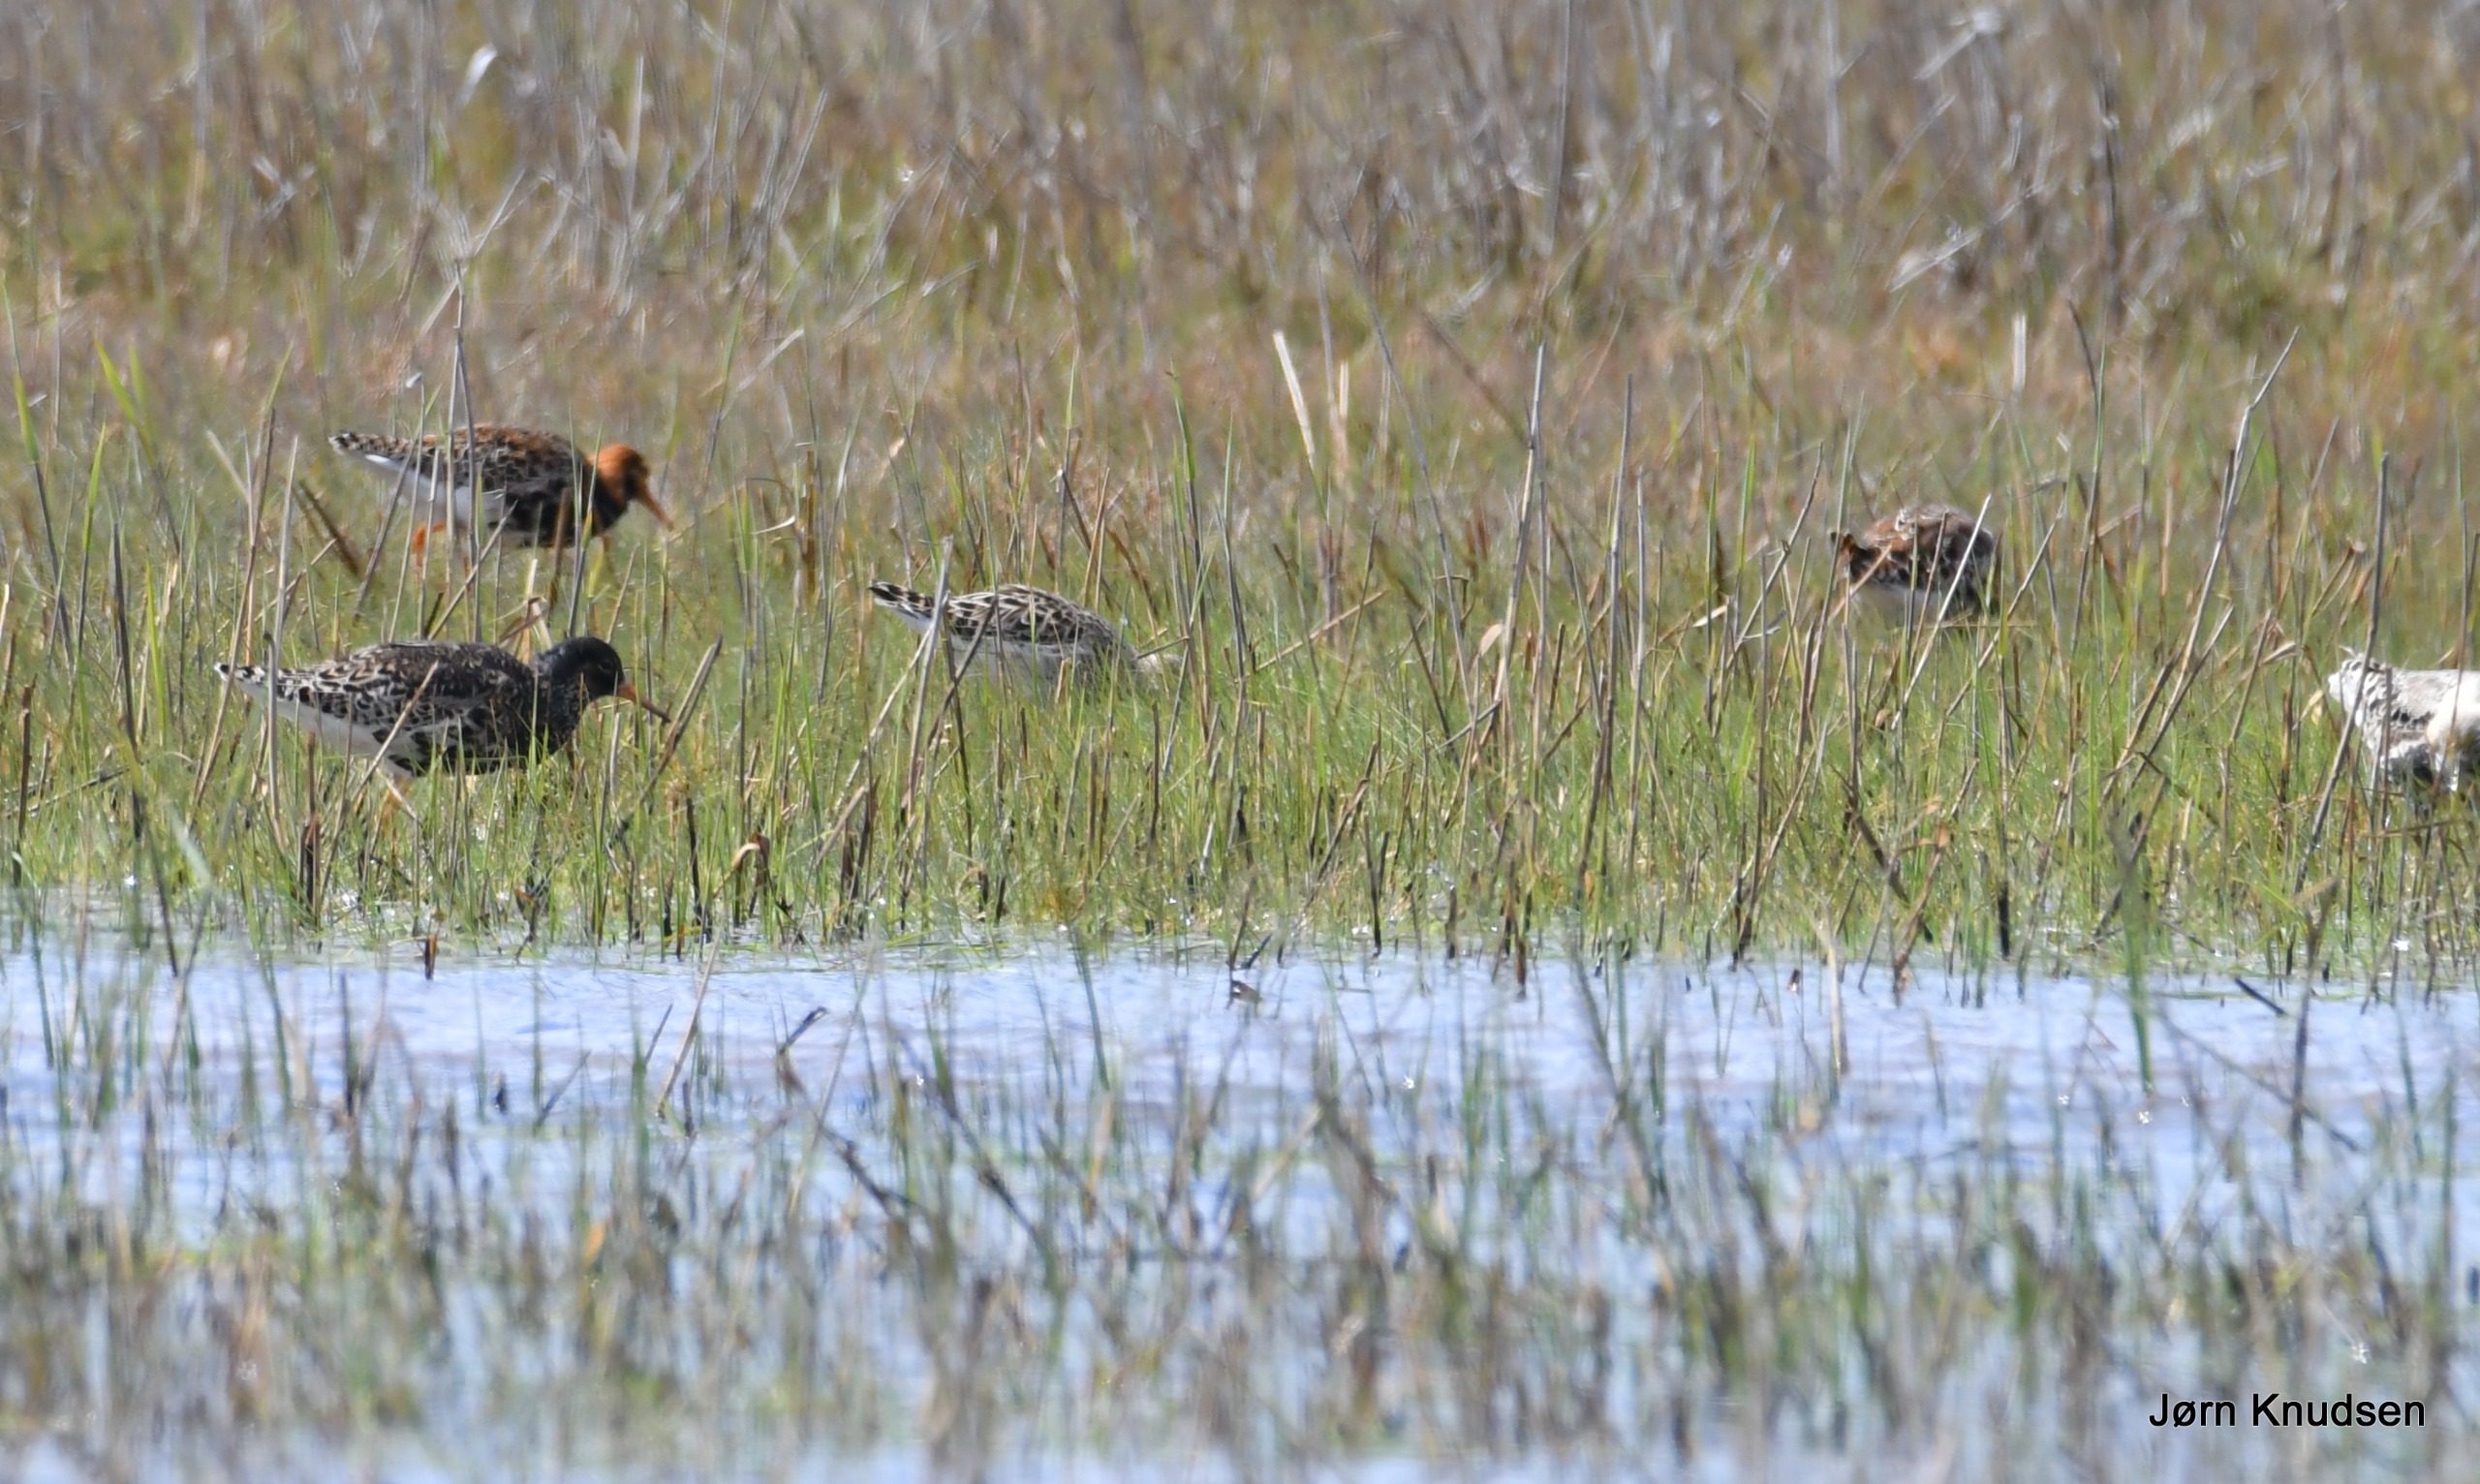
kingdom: Animalia
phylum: Chordata
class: Aves
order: Charadriiformes
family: Scolopacidae
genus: Calidris
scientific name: Calidris pugnax
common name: Brushane
